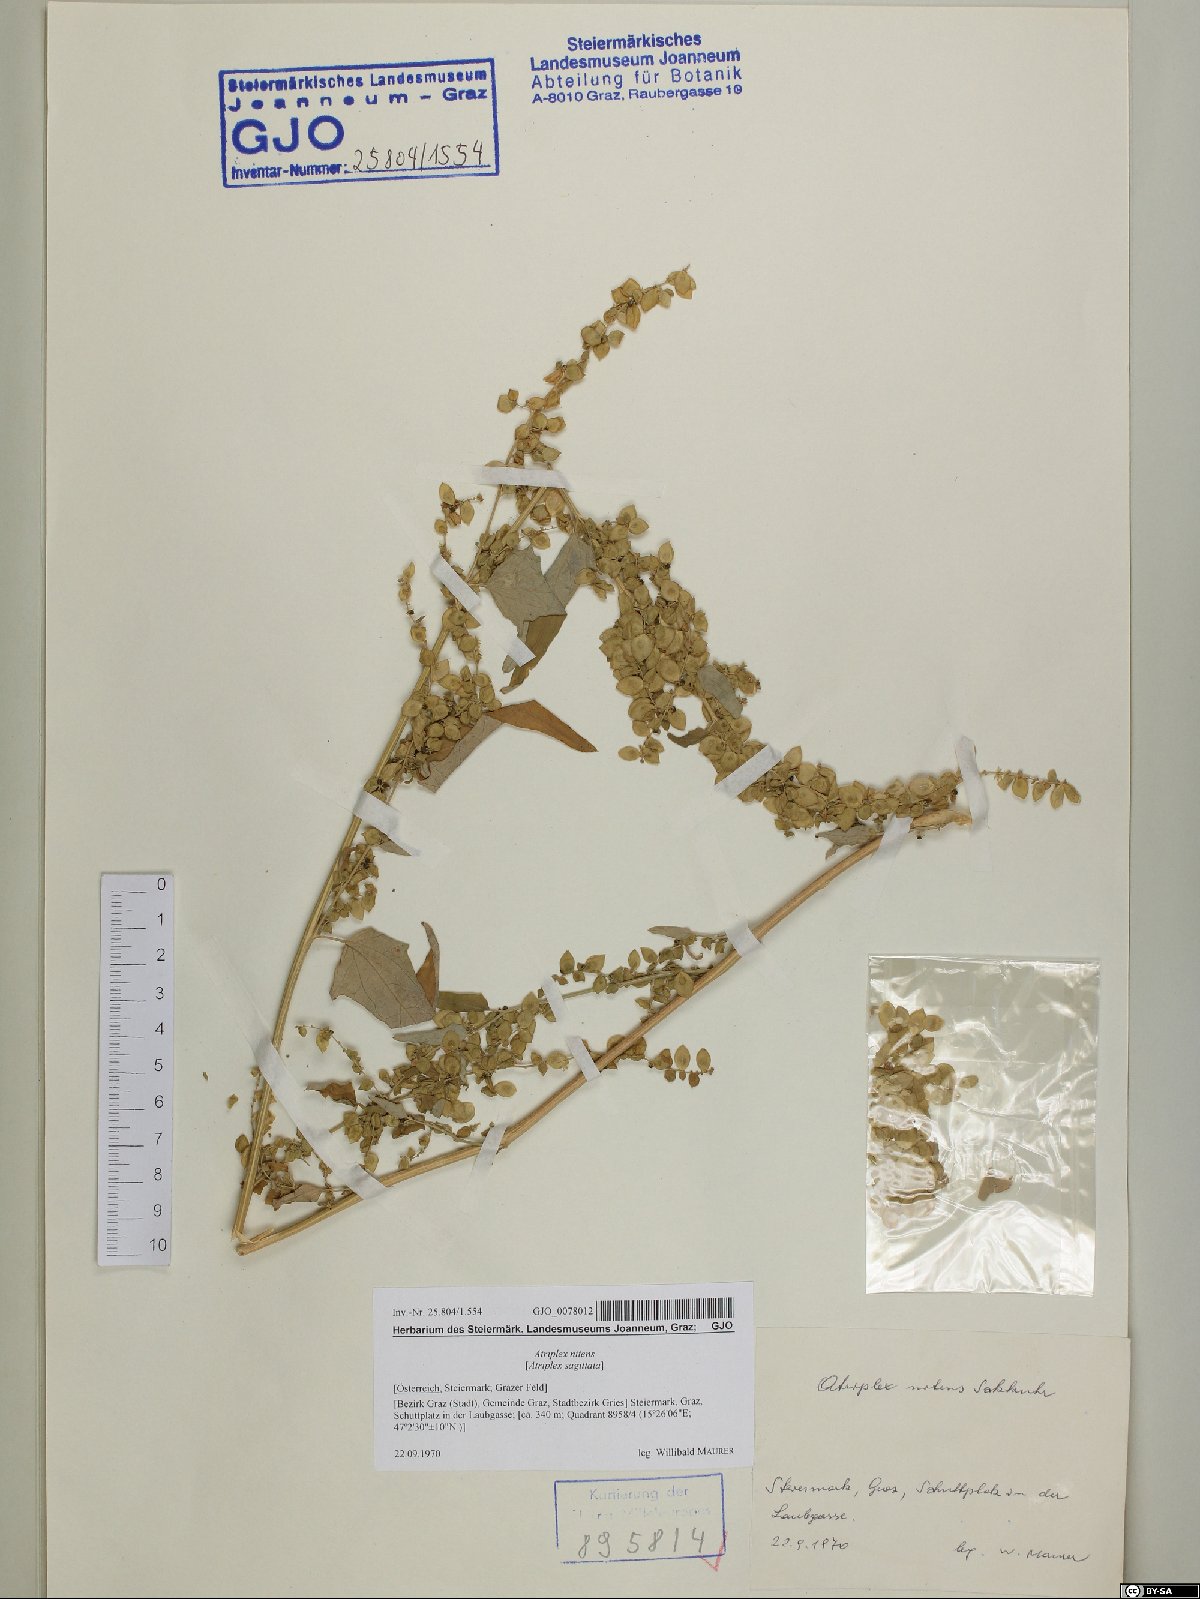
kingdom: Plantae
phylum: Tracheophyta
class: Magnoliopsida
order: Caryophyllales
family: Amaranthaceae
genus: Atriplex
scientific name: Atriplex sagittata
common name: Purple orache
